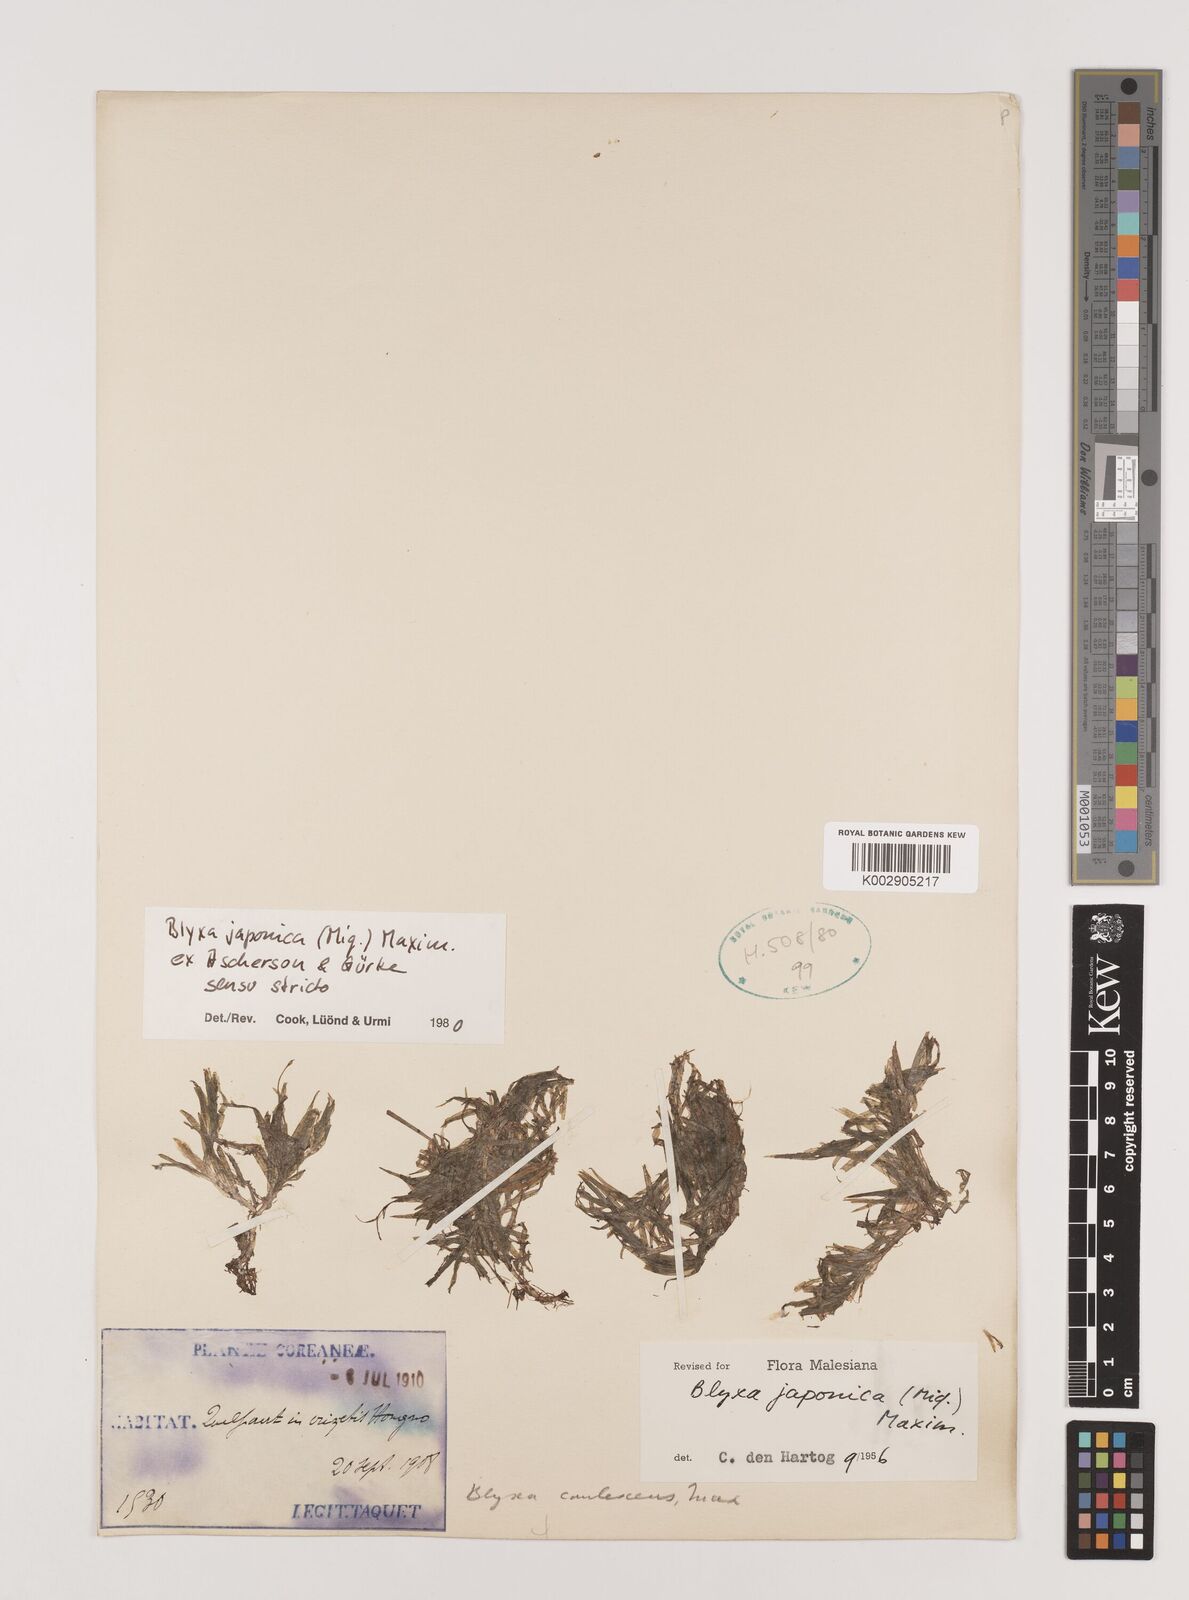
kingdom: Plantae
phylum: Tracheophyta
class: Liliopsida
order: Alismatales
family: Hydrocharitaceae
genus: Blyxa
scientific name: Blyxa japonica
